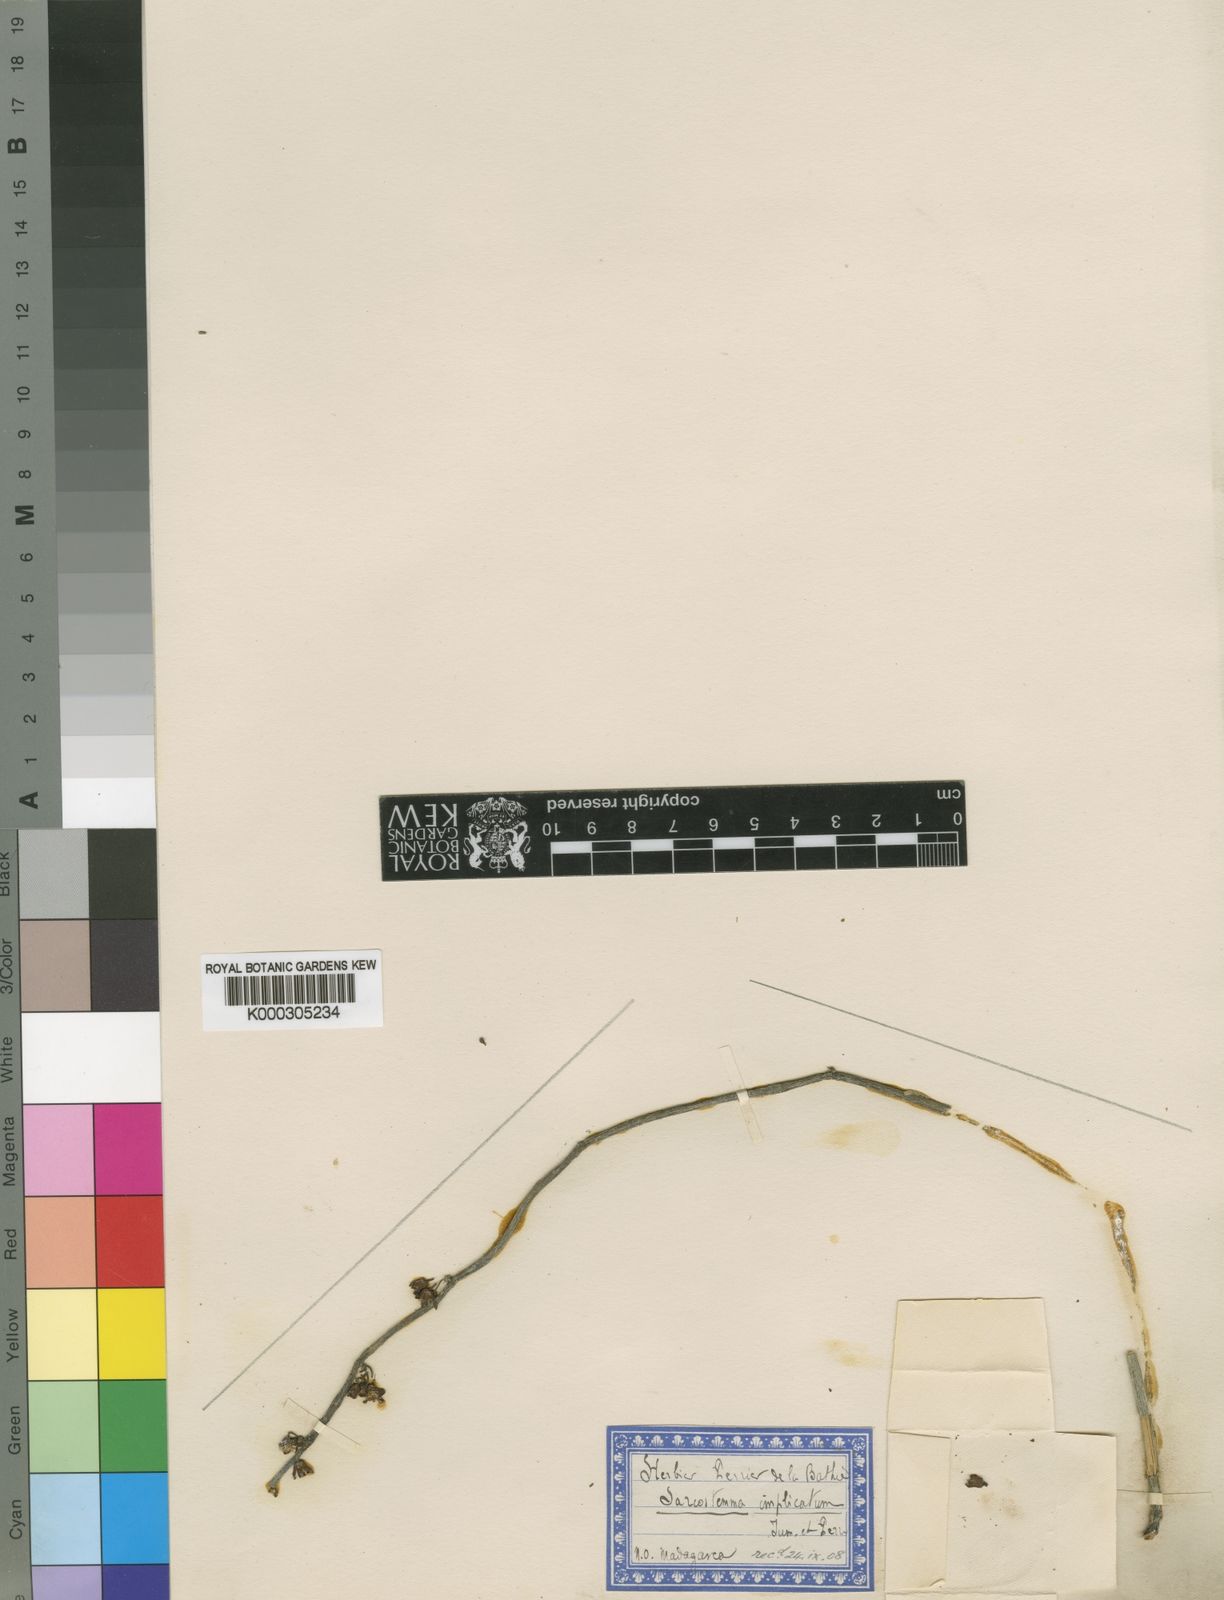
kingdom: Plantae
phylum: Tracheophyta
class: Magnoliopsida
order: Gentianales
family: Apocynaceae
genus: Cynanchum
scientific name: Cynanchum implicatum
